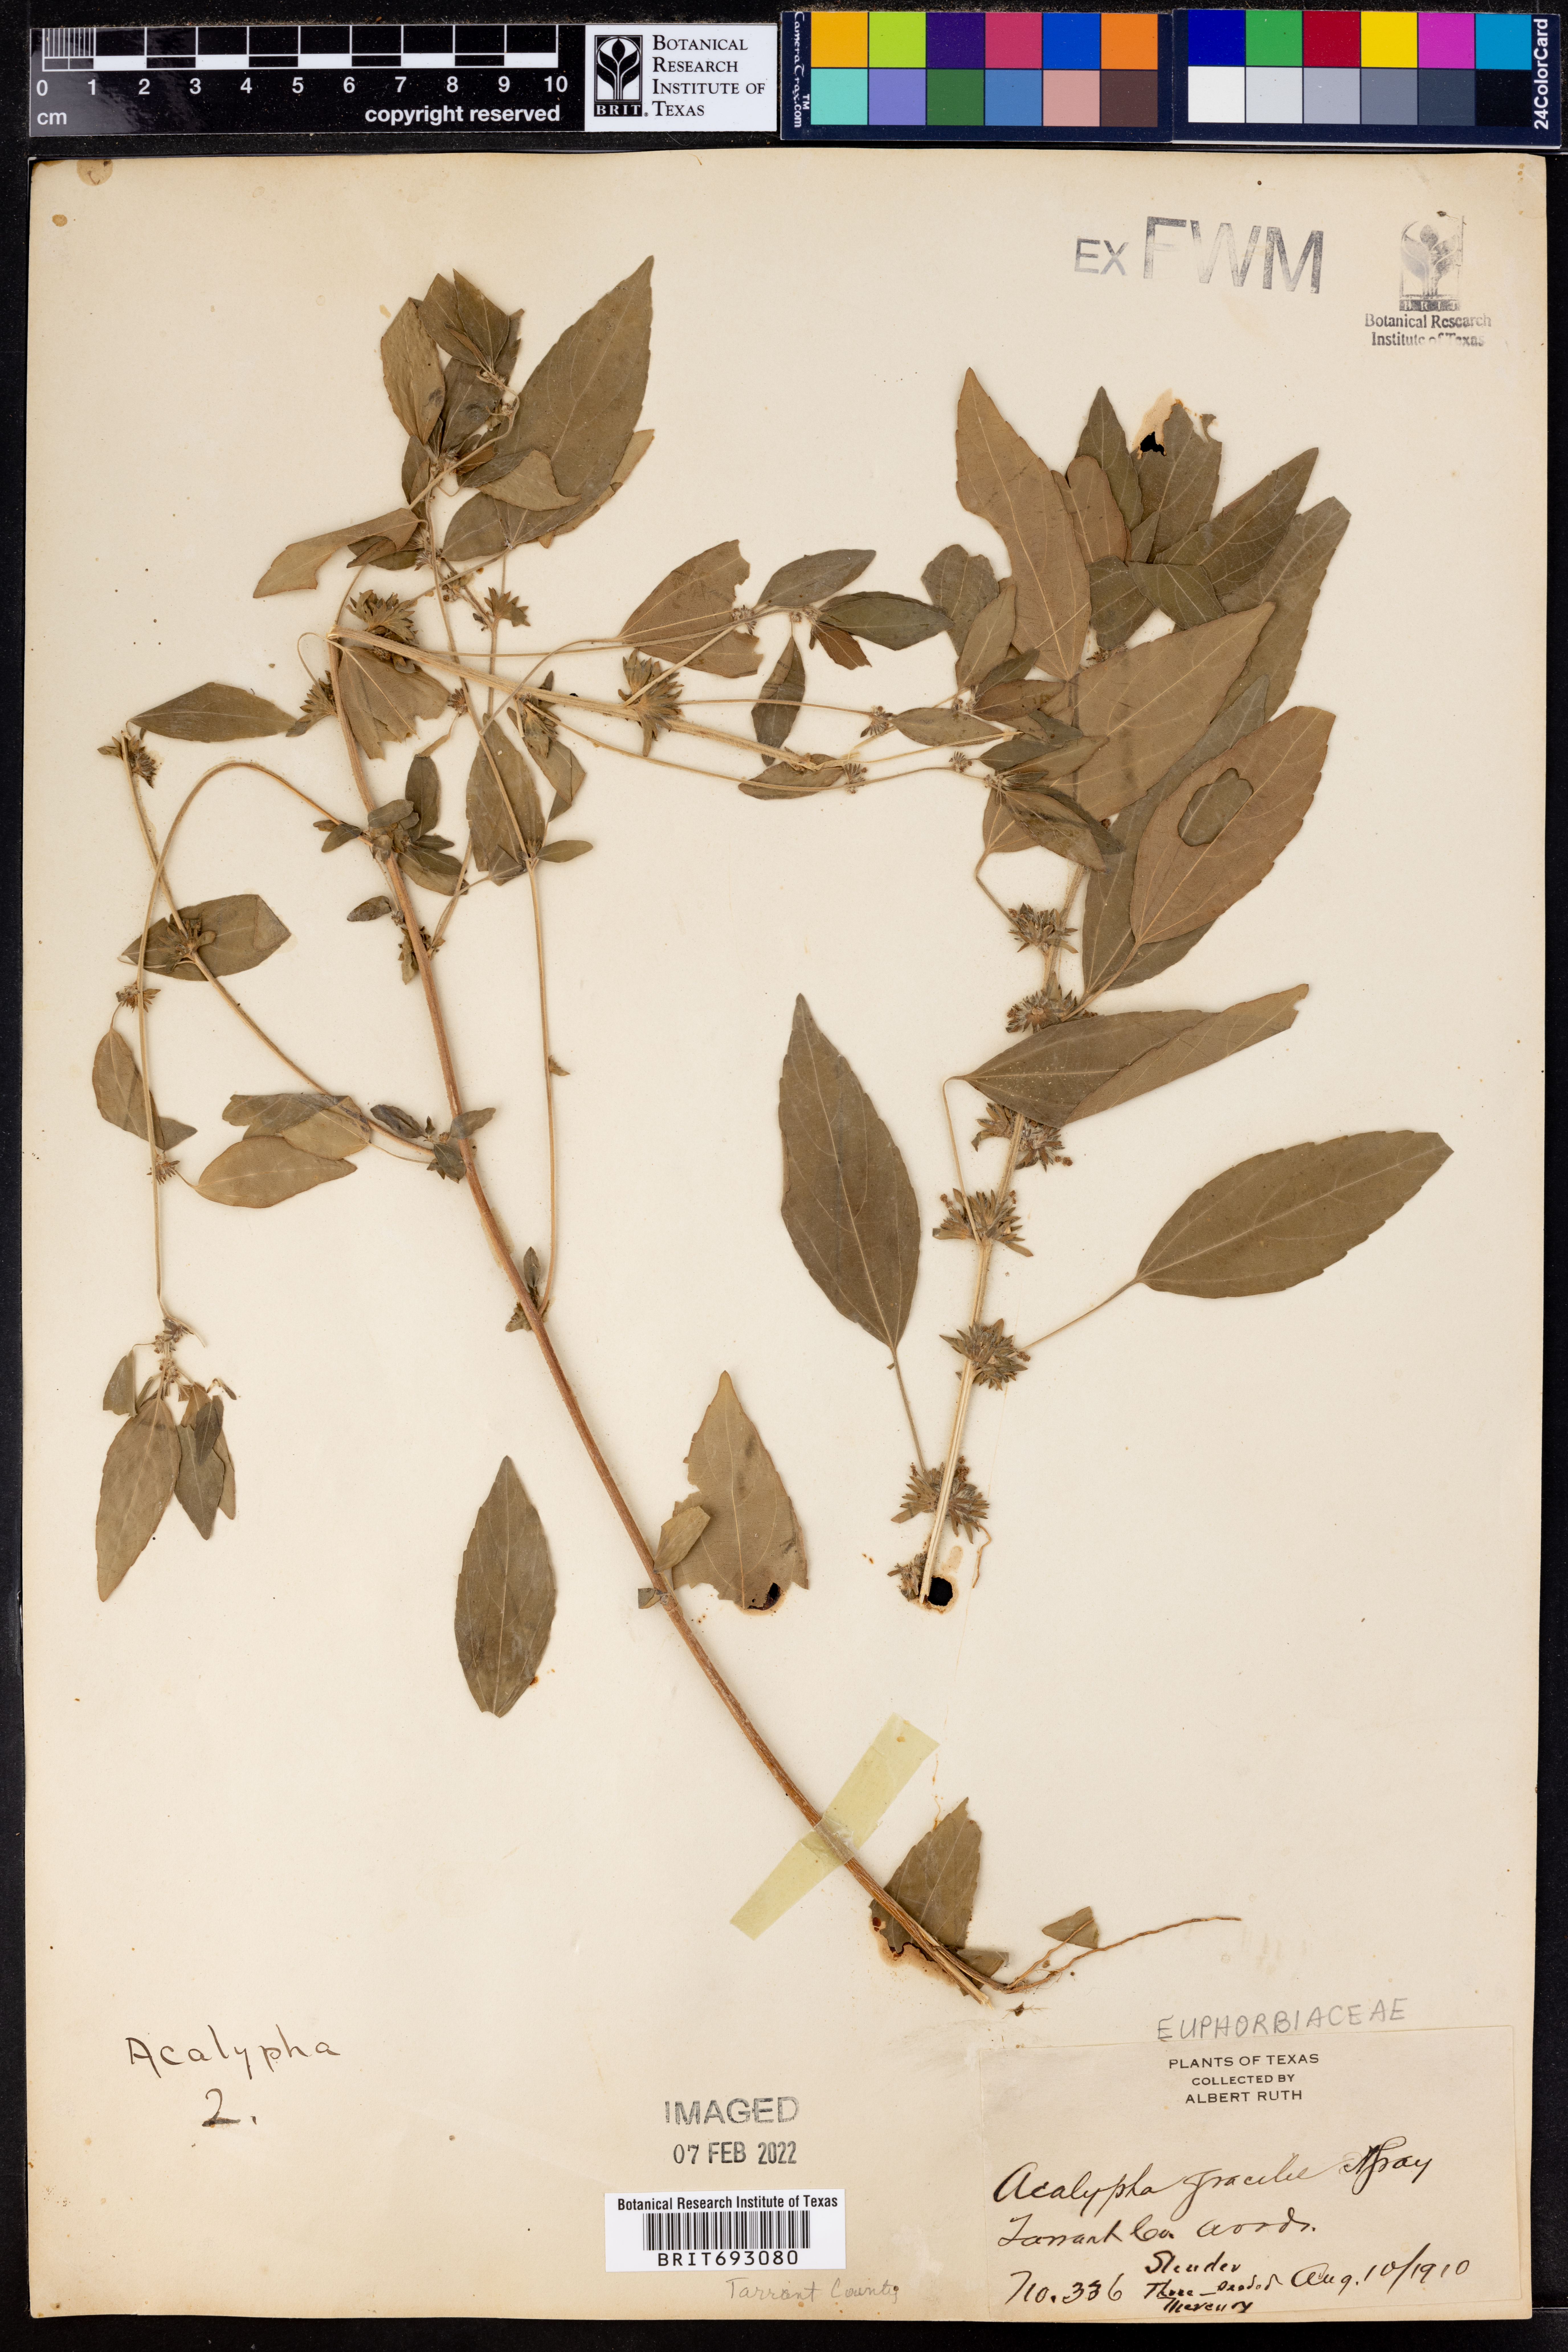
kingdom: Plantae
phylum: Tracheophyta
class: Magnoliopsida
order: Malpighiales
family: Euphorbiaceae
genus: Acalypha
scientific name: Acalypha gracilens
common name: Slender three-seeded mercury
